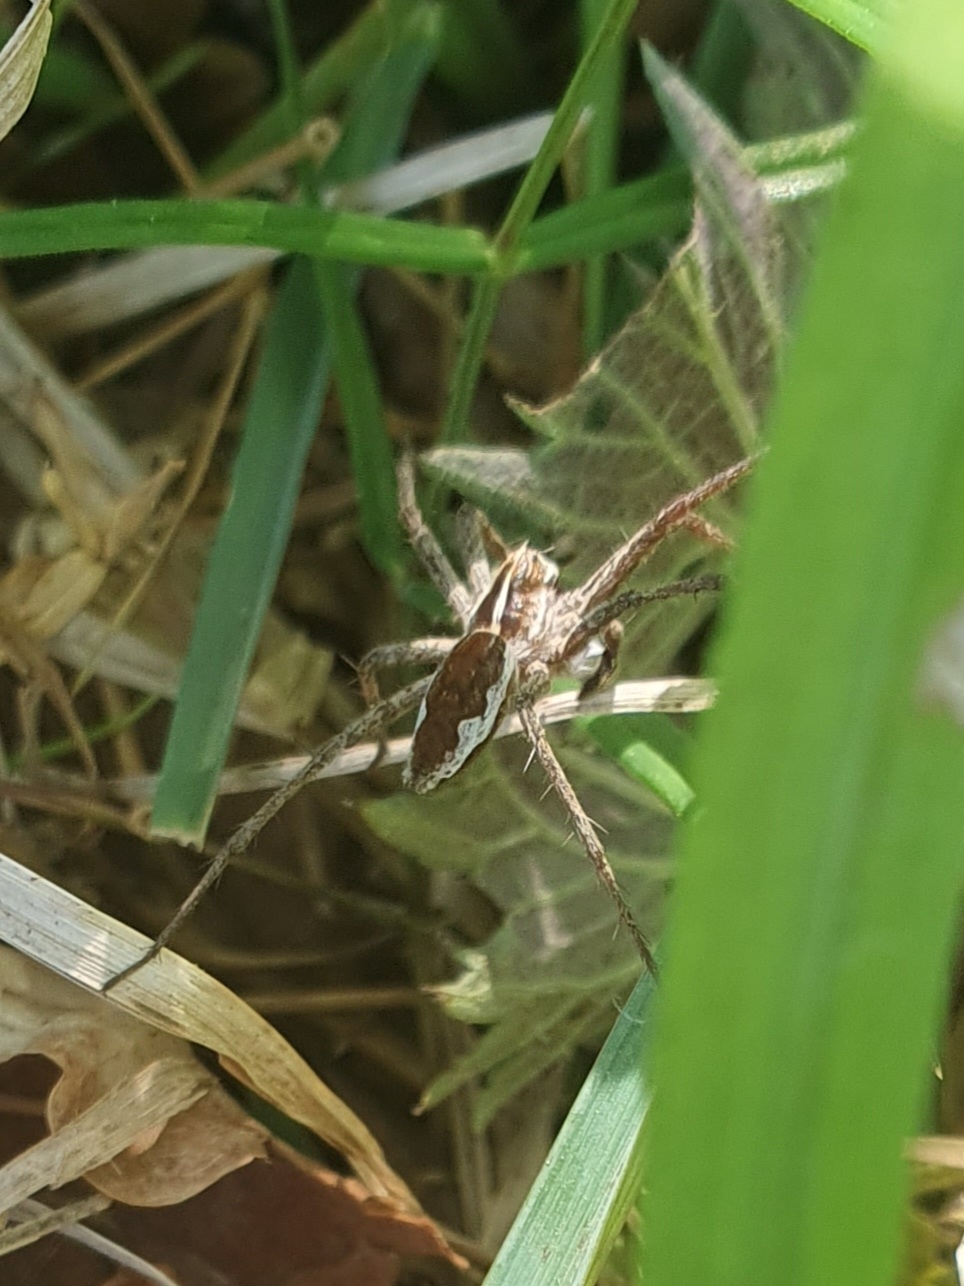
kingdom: Animalia
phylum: Arthropoda
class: Arachnida
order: Araneae
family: Pisauridae
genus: Pisaura
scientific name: Pisaura mirabilis
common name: Almindelig rovedderkop
